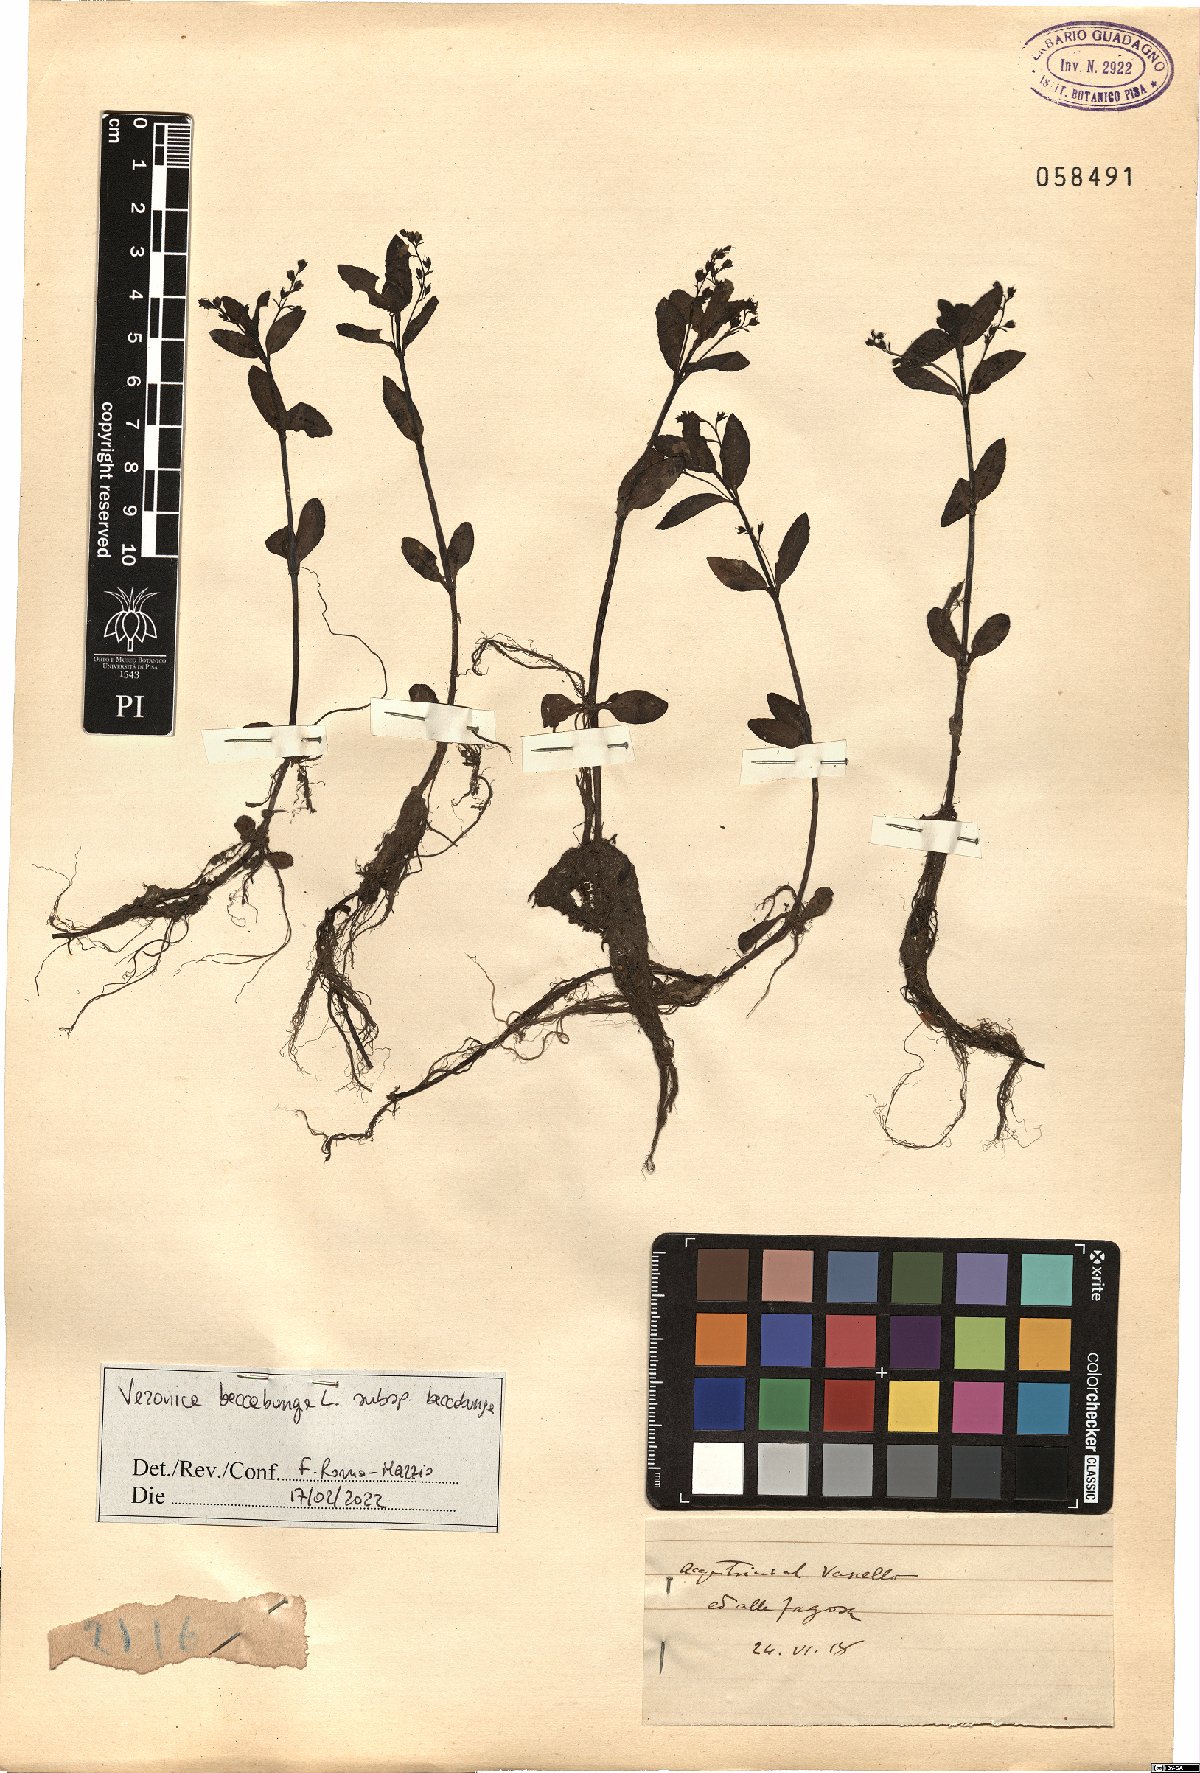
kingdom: Plantae
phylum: Tracheophyta
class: Magnoliopsida
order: Lamiales
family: Plantaginaceae
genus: Veronica
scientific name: Veronica beccabunga
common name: Brooklime
